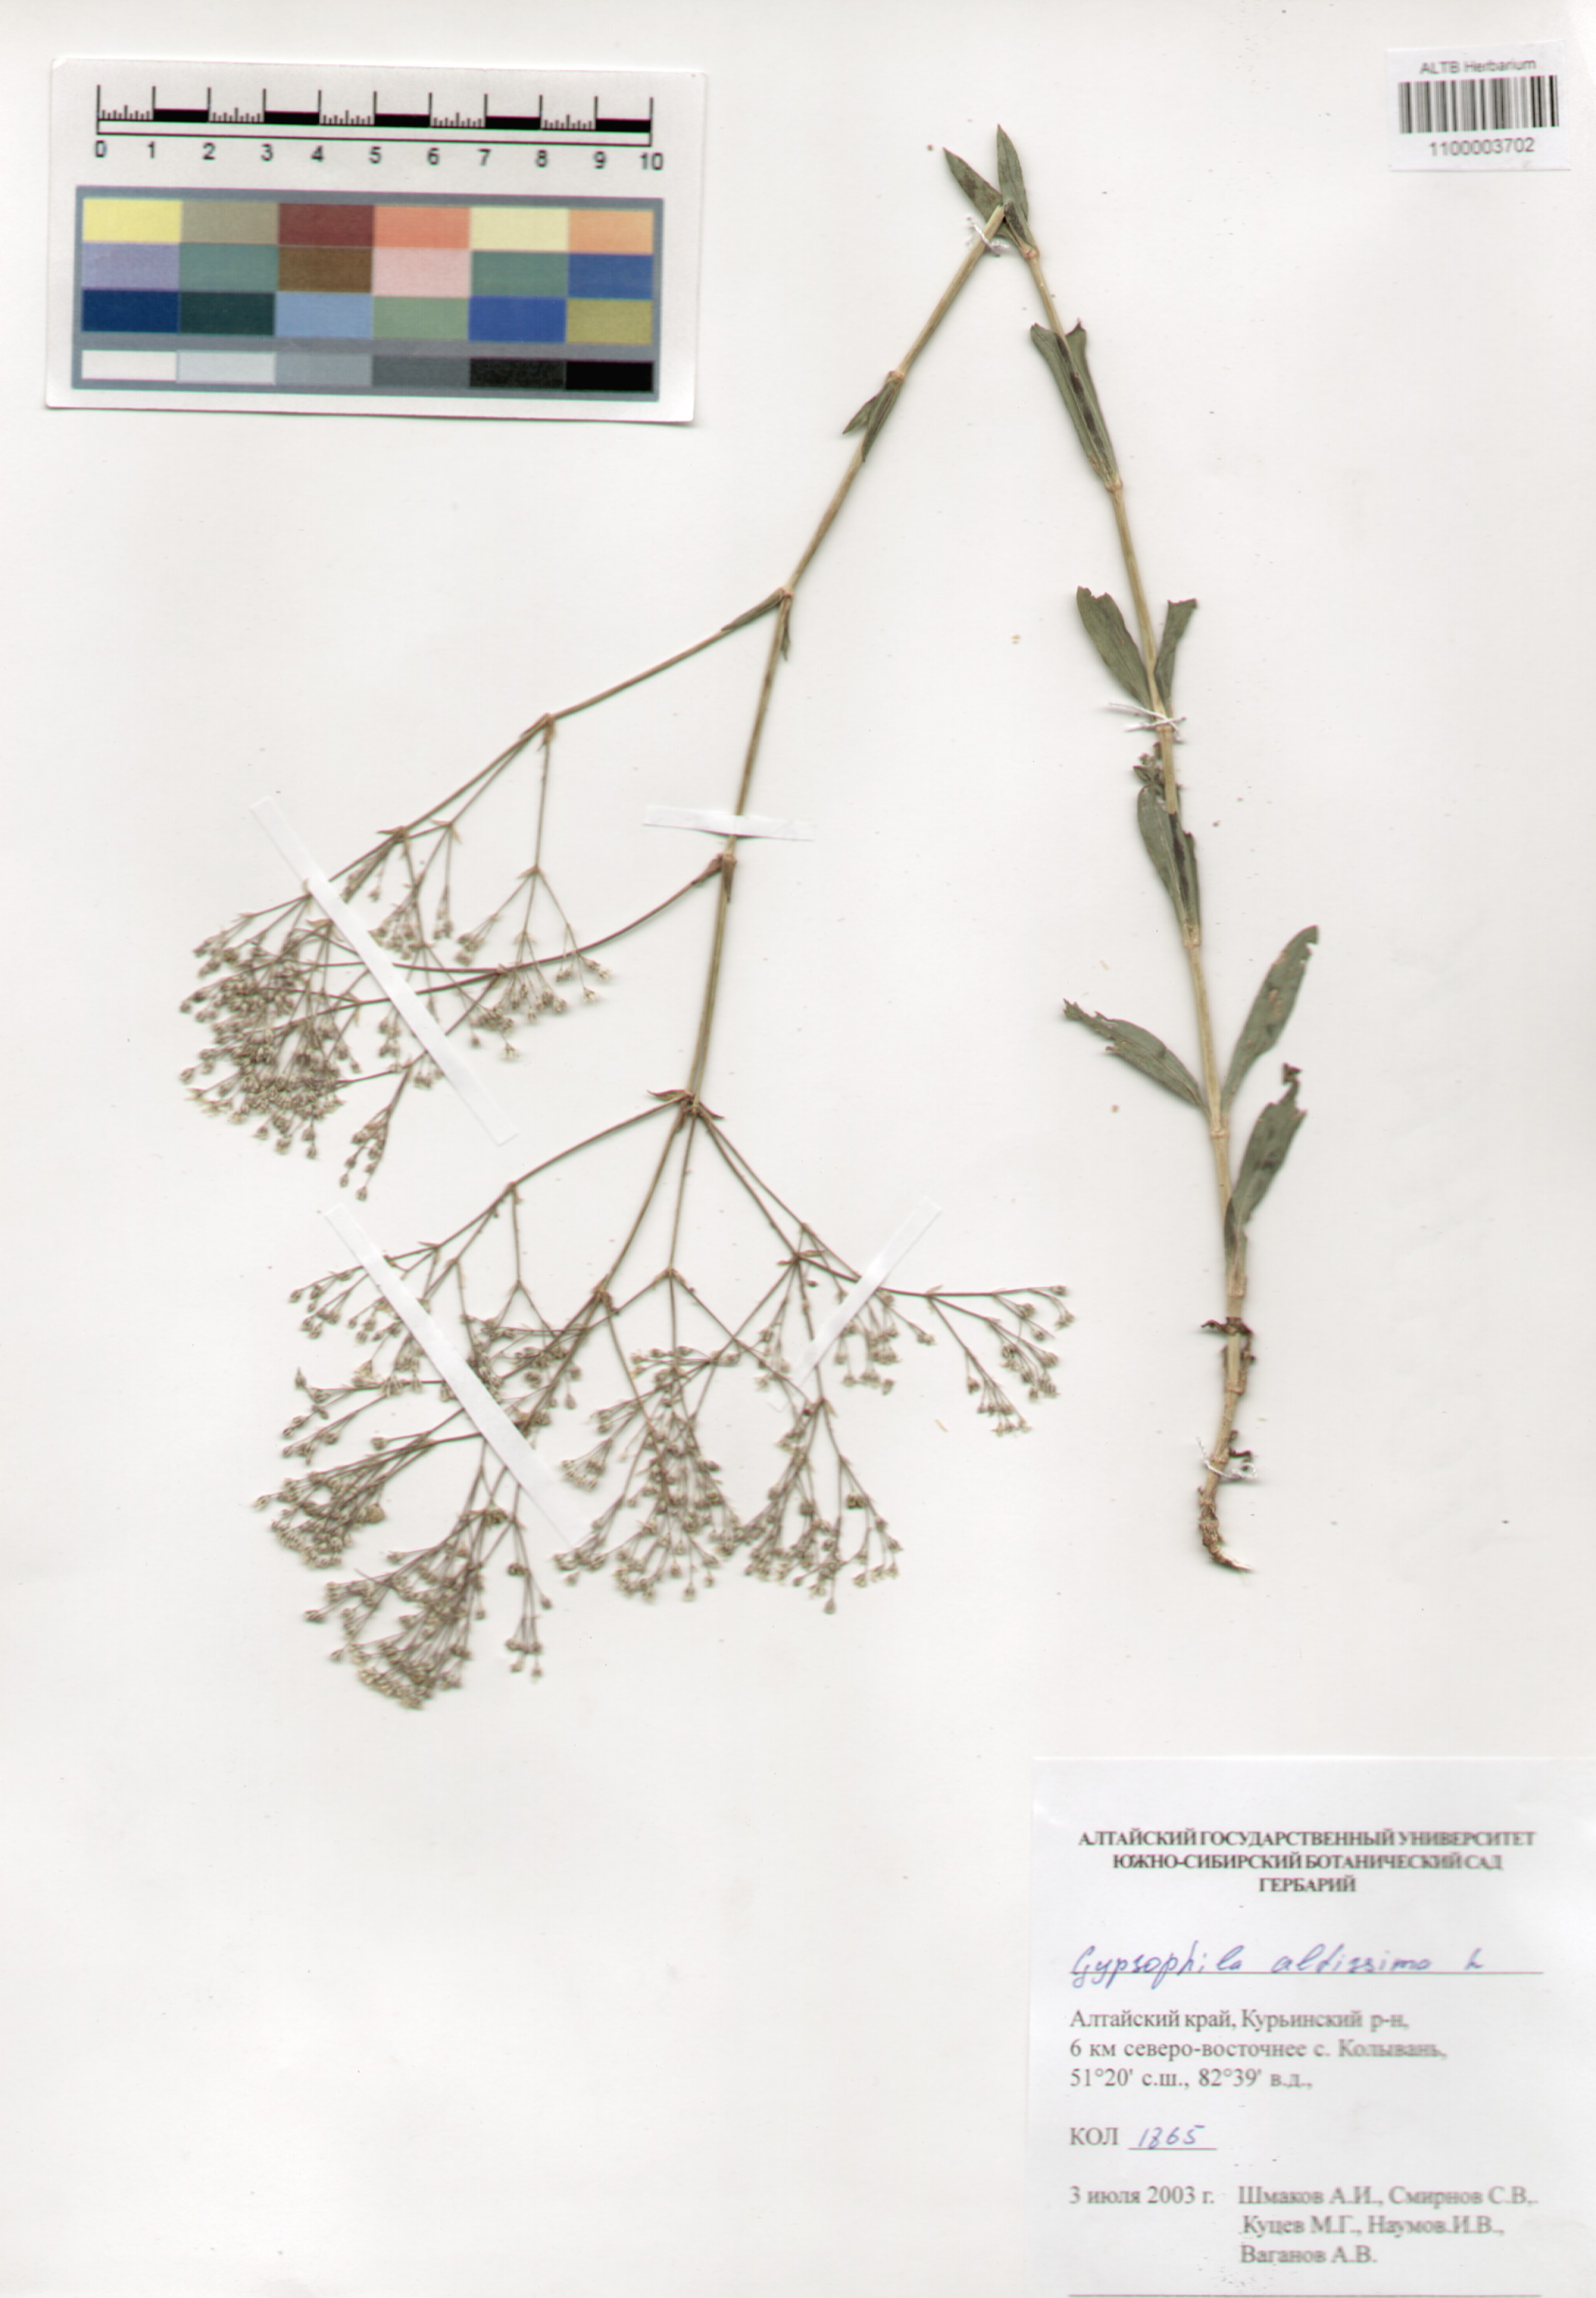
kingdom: Plantae
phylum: Tracheophyta
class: Magnoliopsida
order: Caryophyllales
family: Caryophyllaceae
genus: Gypsophila
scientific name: Gypsophila altissima
